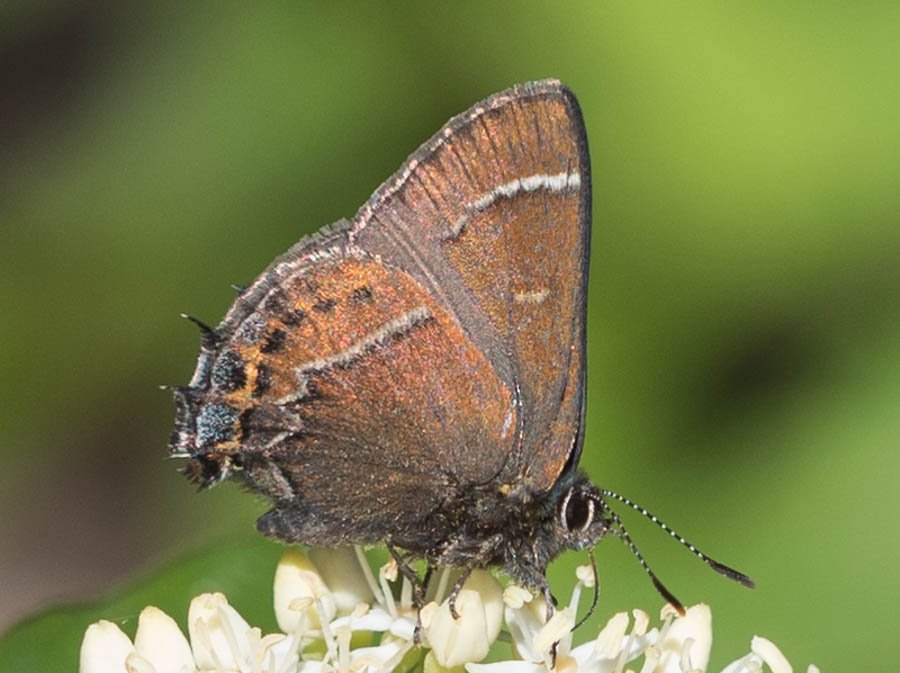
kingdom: Animalia
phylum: Arthropoda
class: Insecta
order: Lepidoptera
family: Lycaenidae
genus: Mitoura
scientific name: Mitoura spinetorum
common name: Thicket Hairstreak
